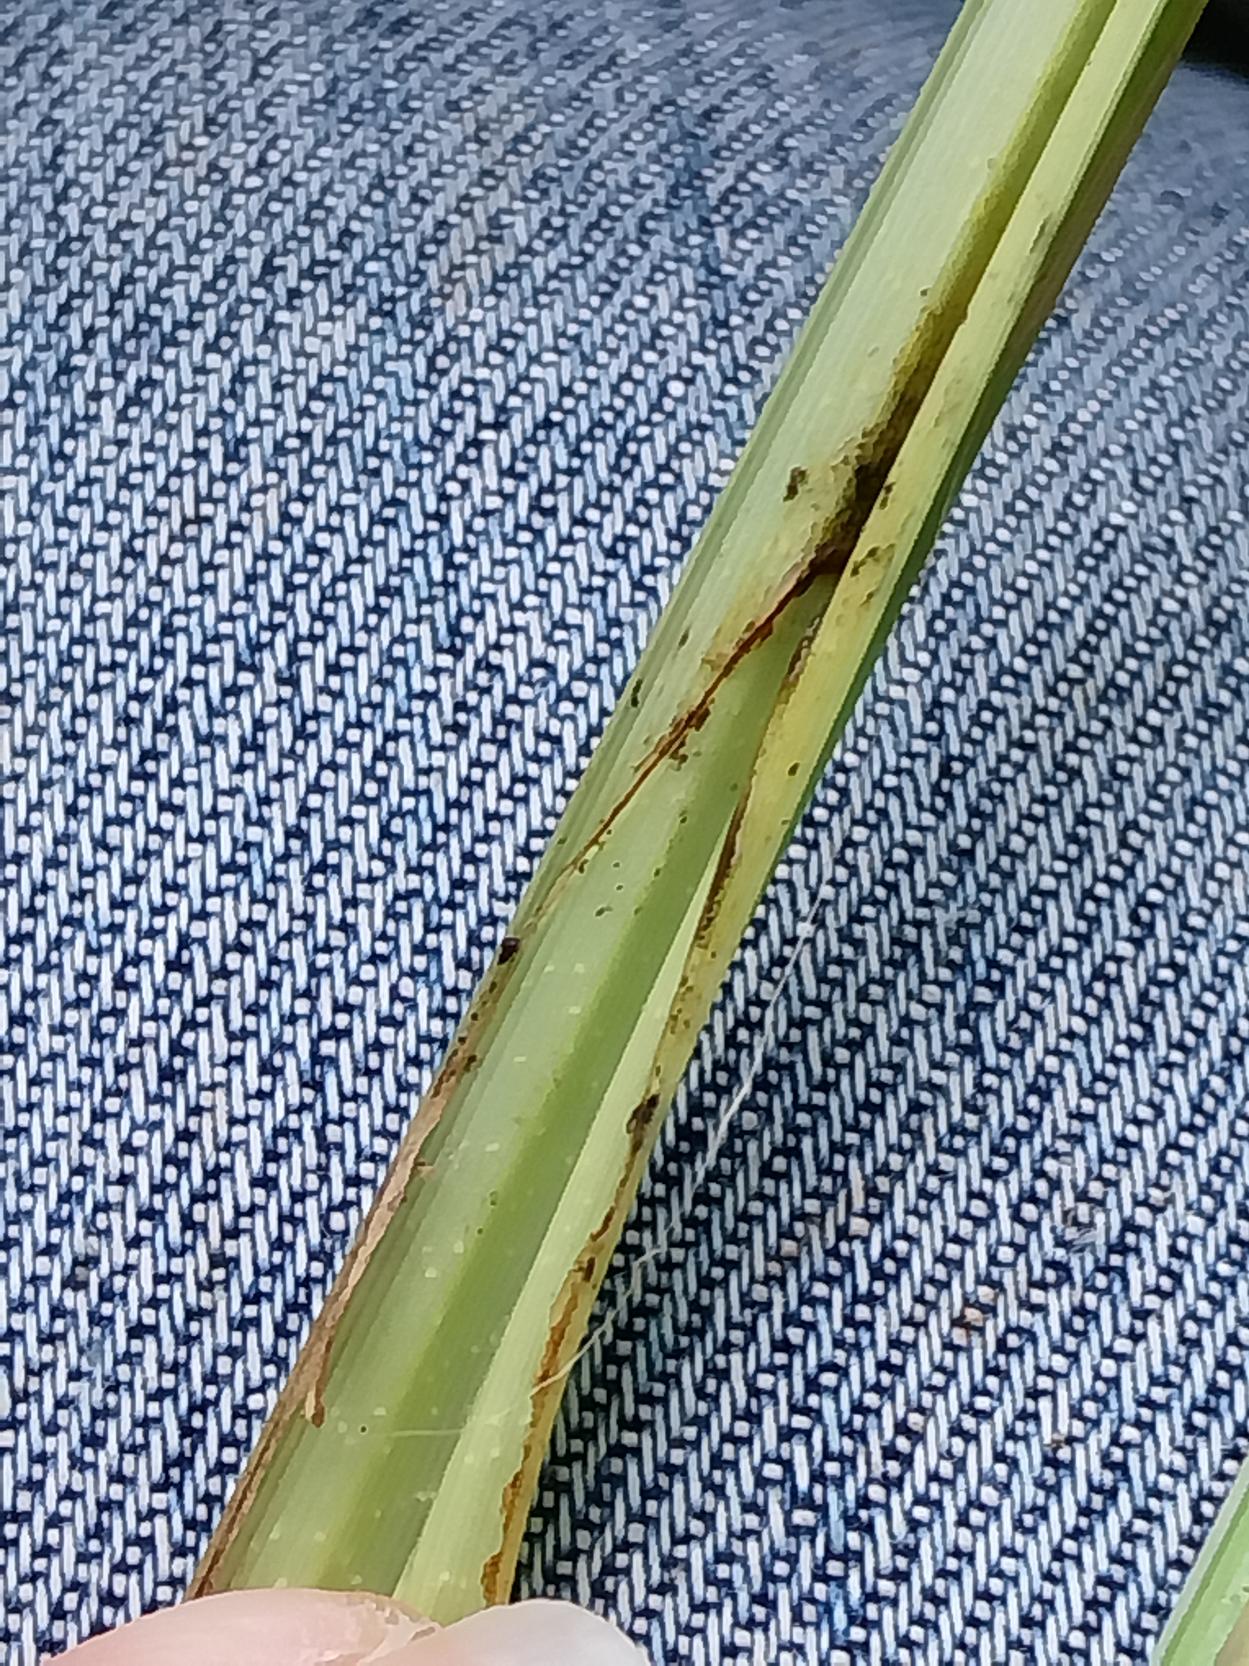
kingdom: Plantae
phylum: Tracheophyta
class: Liliopsida
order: Poales
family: Cyperaceae
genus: Carex
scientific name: Carex acutiformis
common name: Kær-star
